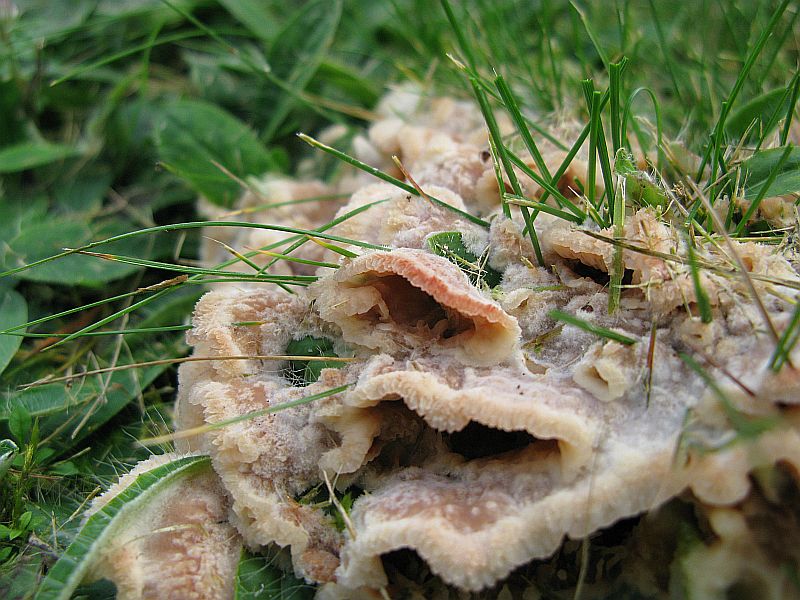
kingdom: Fungi
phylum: Basidiomycota
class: Agaricomycetes
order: Polyporales
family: Meruliaceae
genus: Phlebia
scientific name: Phlebia tremellosa
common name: bævrende åresvamp
